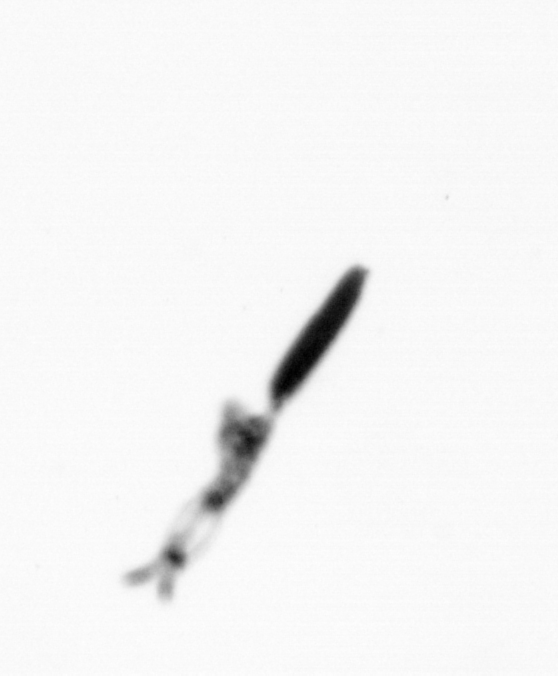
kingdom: Animalia
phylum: Arthropoda
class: Copepoda
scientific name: Copepoda
